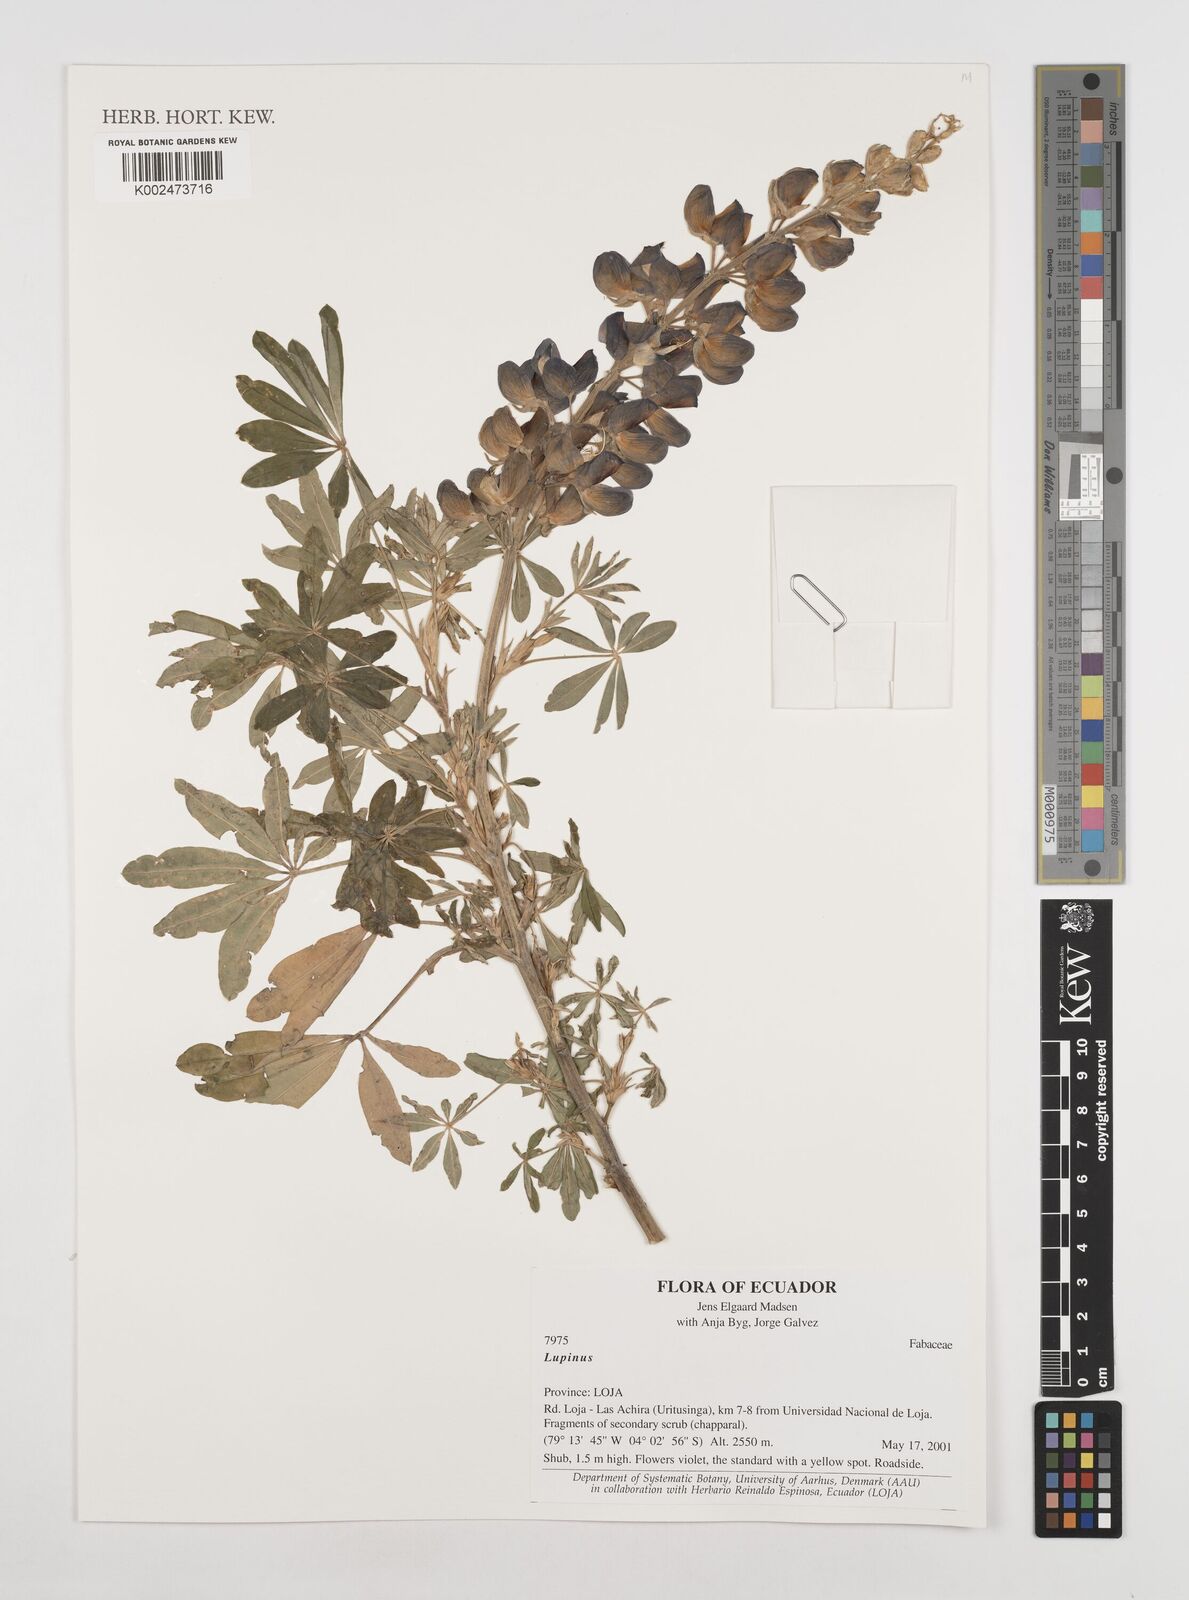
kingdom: Plantae
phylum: Tracheophyta
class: Magnoliopsida
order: Fabales
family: Fabaceae
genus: Lupinus
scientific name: Lupinus
